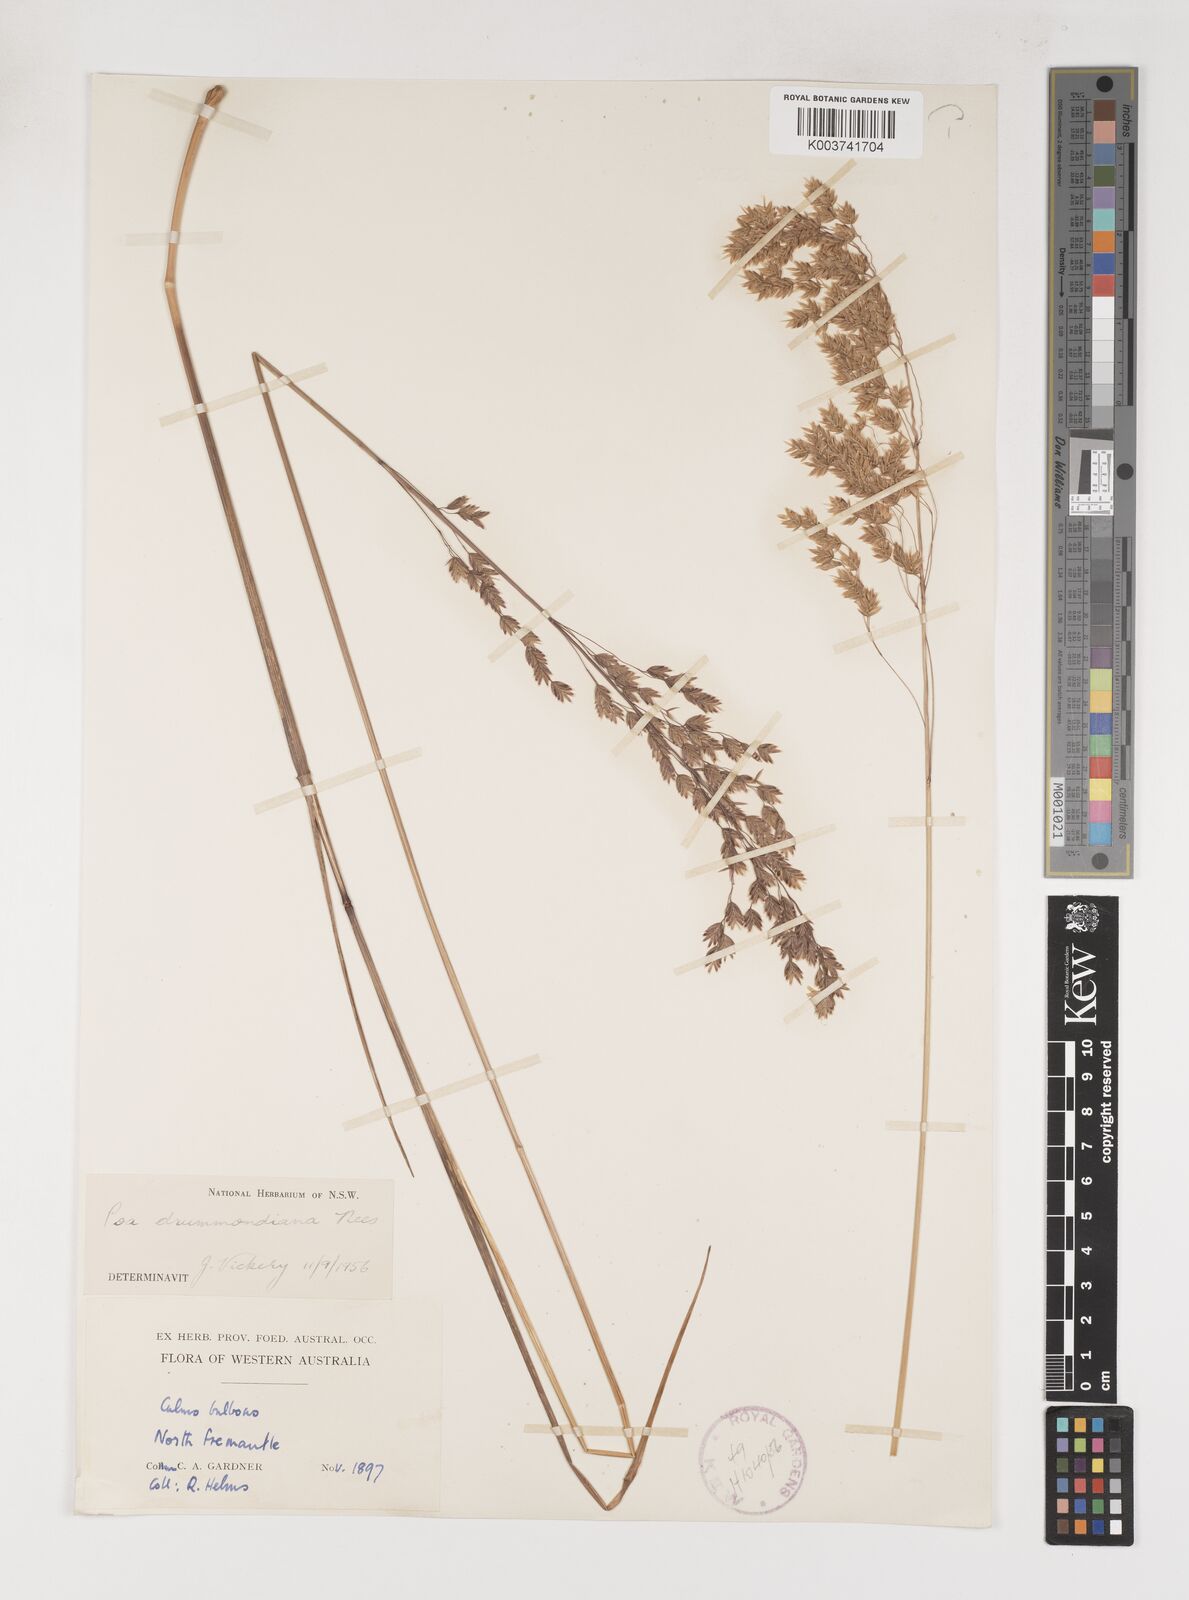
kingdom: Plantae
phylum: Tracheophyta
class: Liliopsida
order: Poales
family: Poaceae
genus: Poa
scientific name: Poa drummondiana
